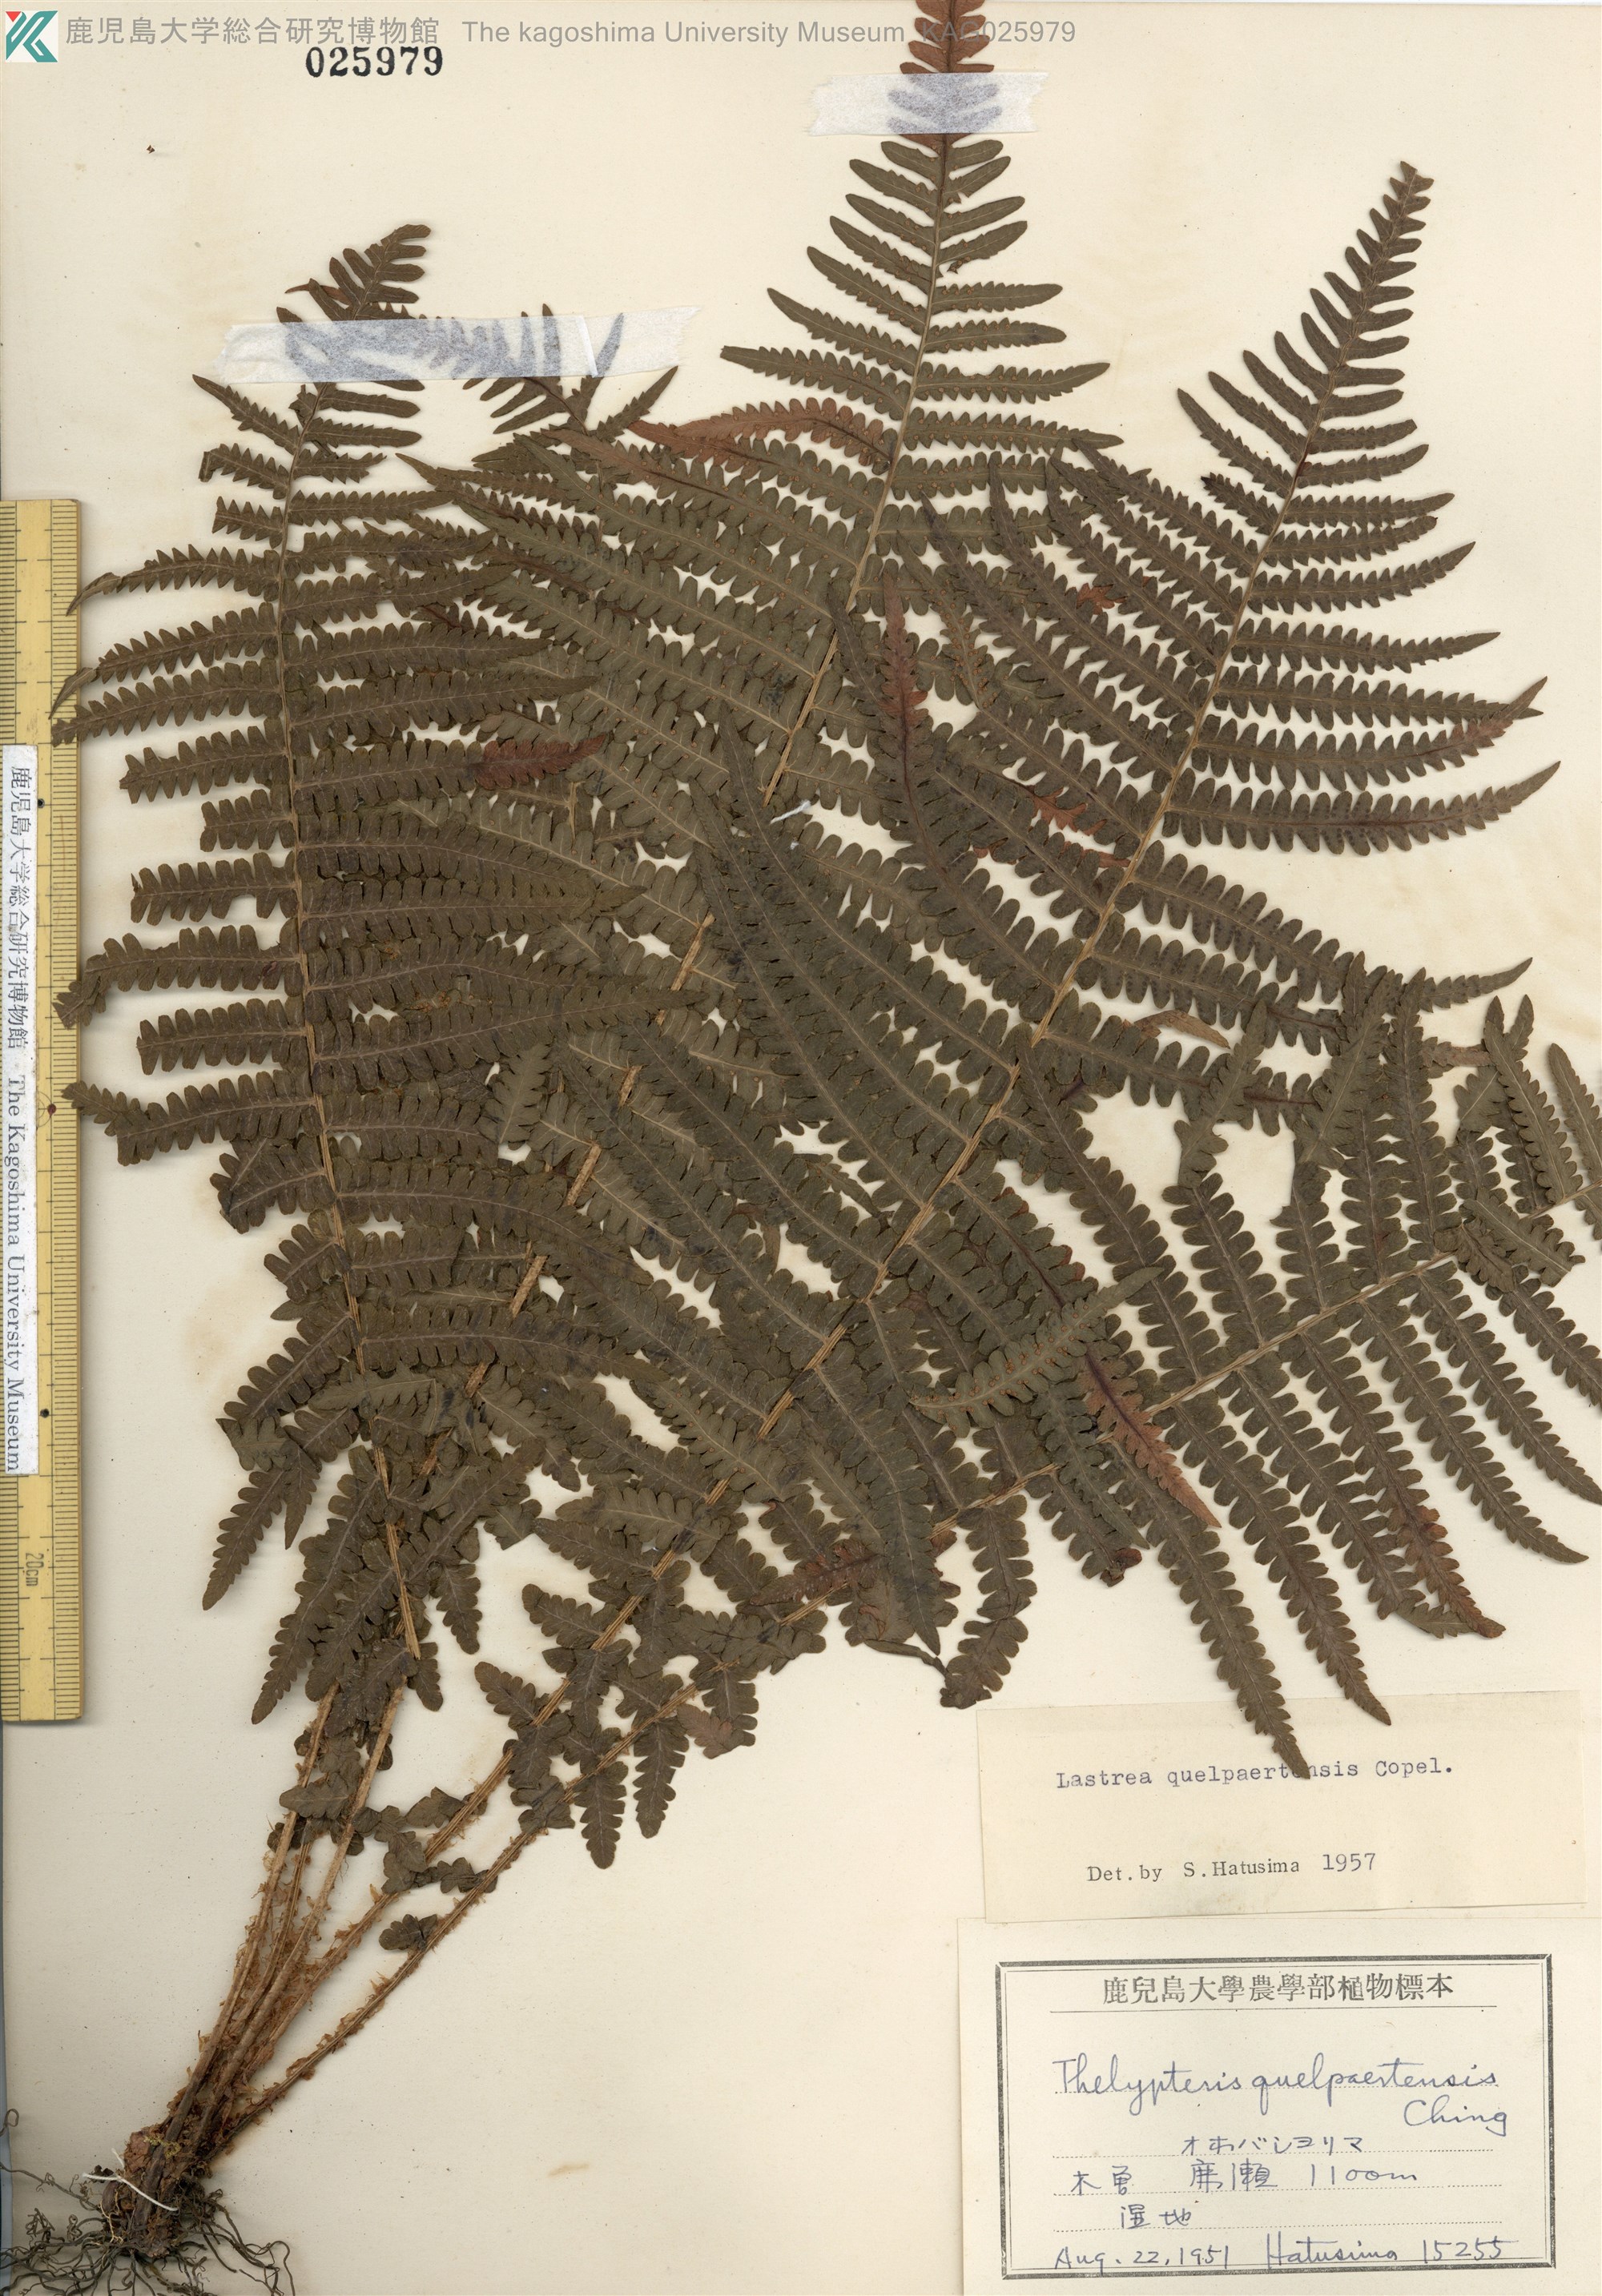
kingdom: Plantae
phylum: Tracheophyta
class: Polypodiopsida
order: Polypodiales
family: Thelypteridaceae
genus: Oreopteris
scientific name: Oreopteris quelpartensis
